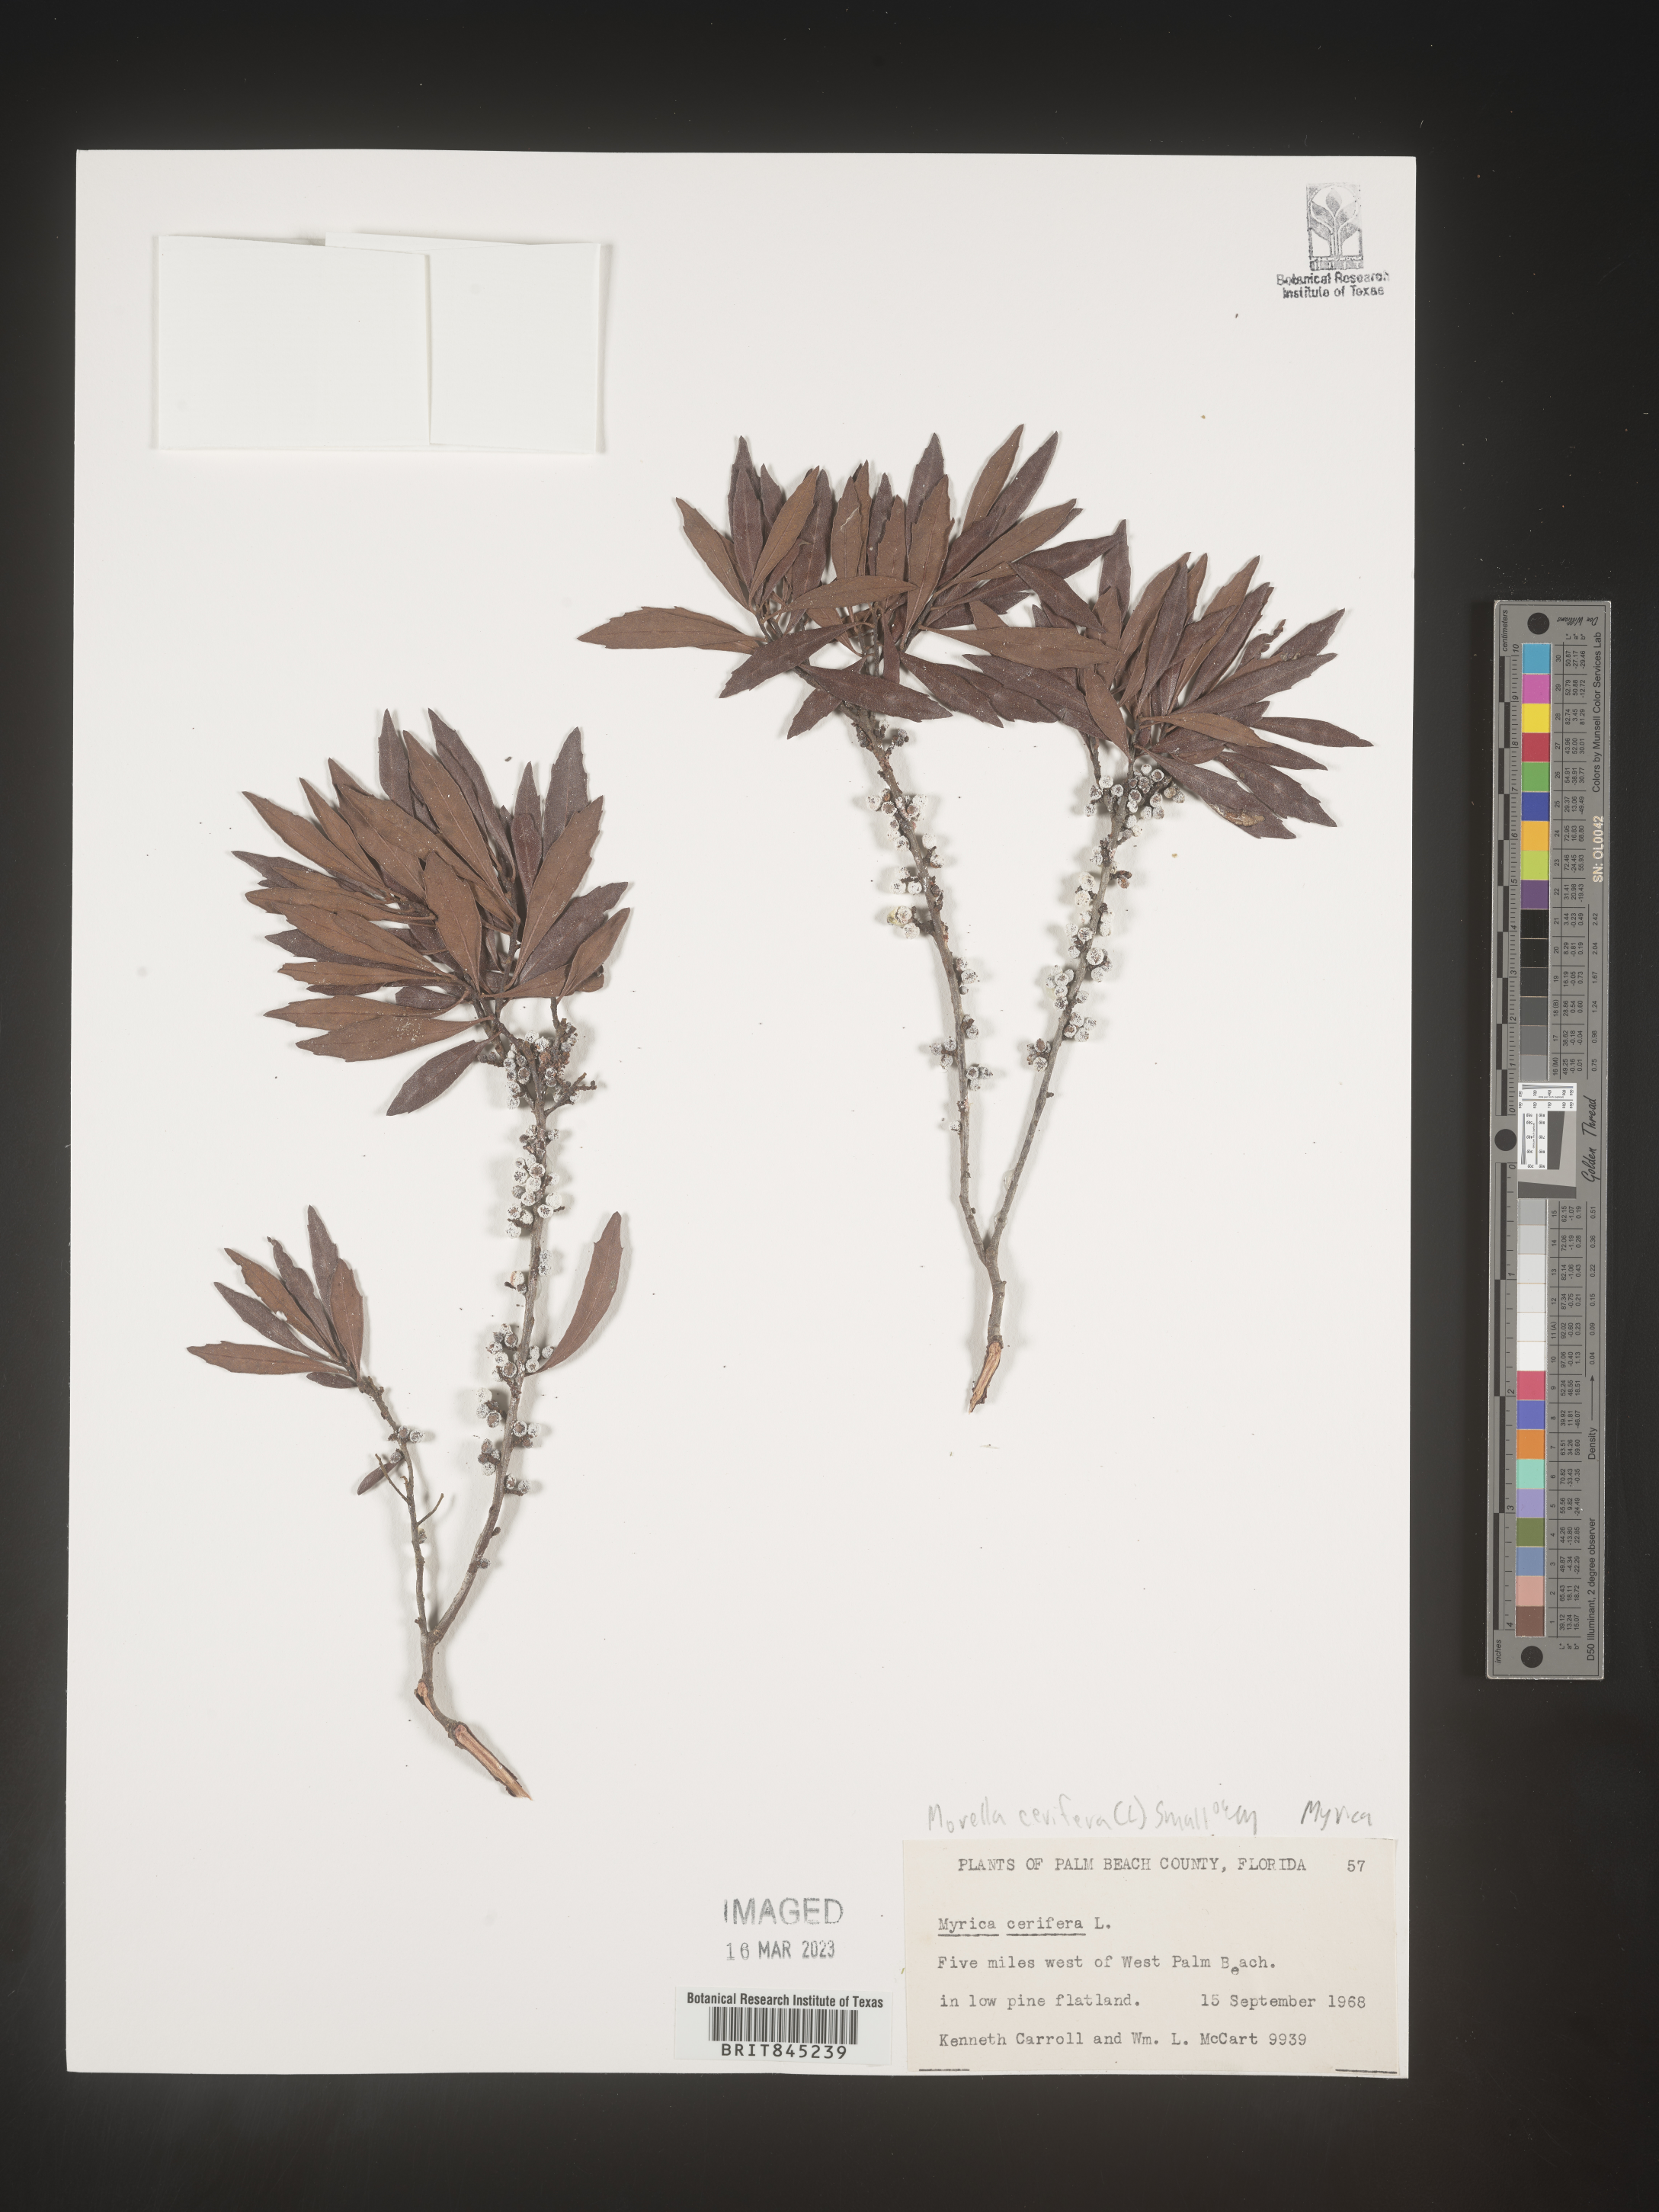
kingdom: Plantae
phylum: Tracheophyta
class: Magnoliopsida
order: Fagales
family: Myricaceae
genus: Morella
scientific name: Morella cerifera
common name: Wax myrtle
